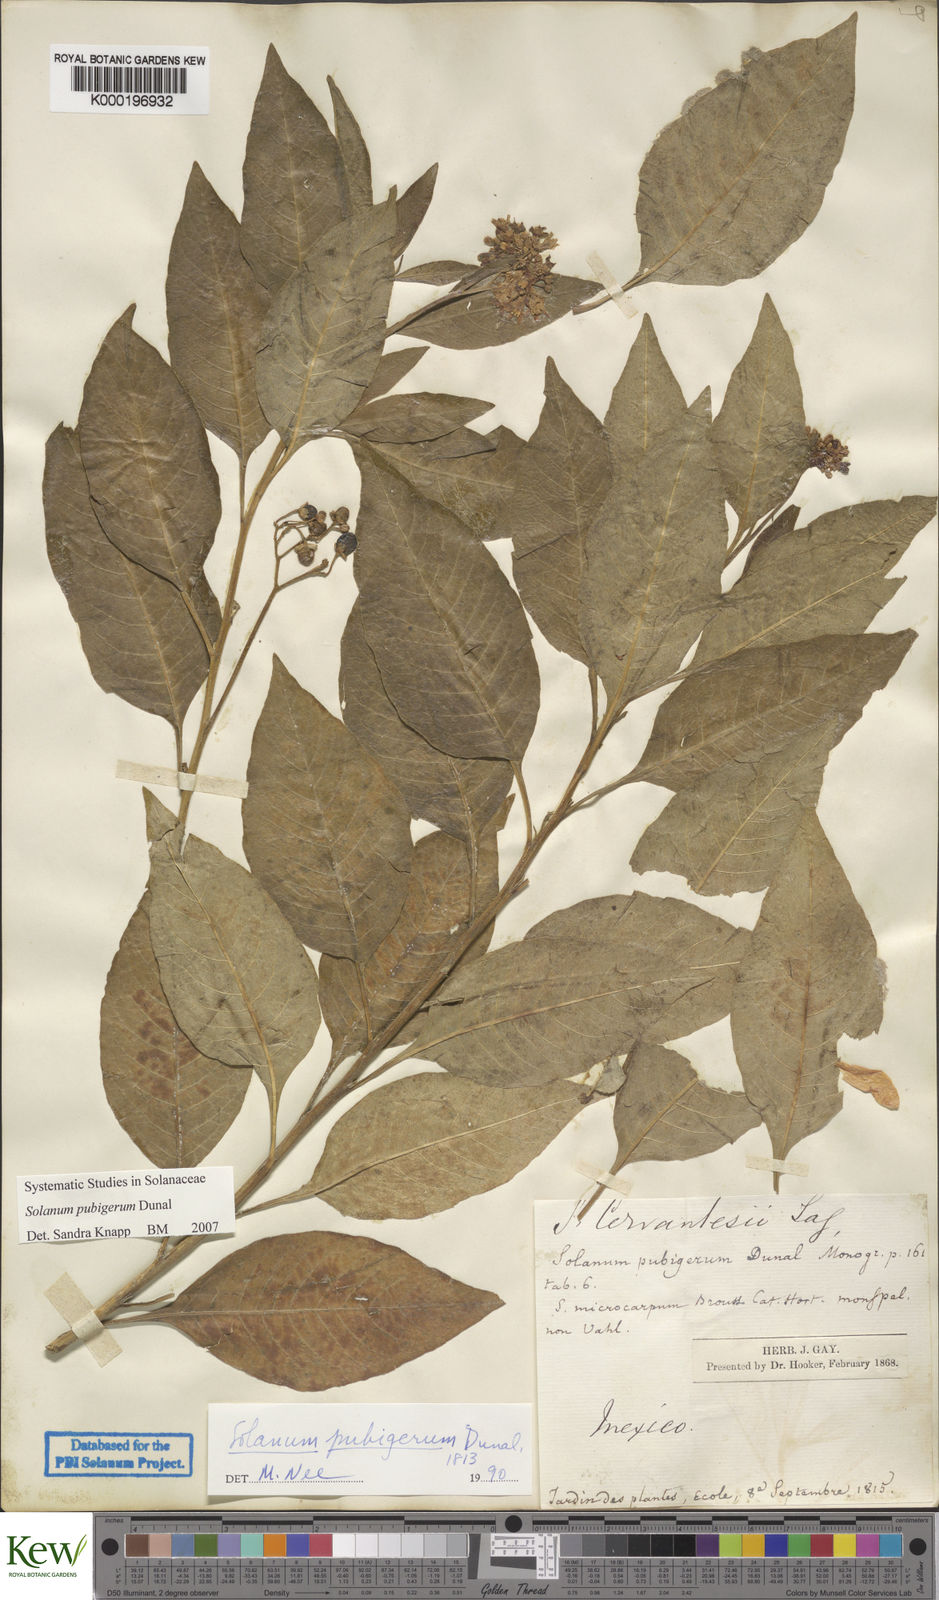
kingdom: Plantae
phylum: Tracheophyta
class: Magnoliopsida
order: Solanales
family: Solanaceae
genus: Solanum
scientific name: Solanum pubigerum
